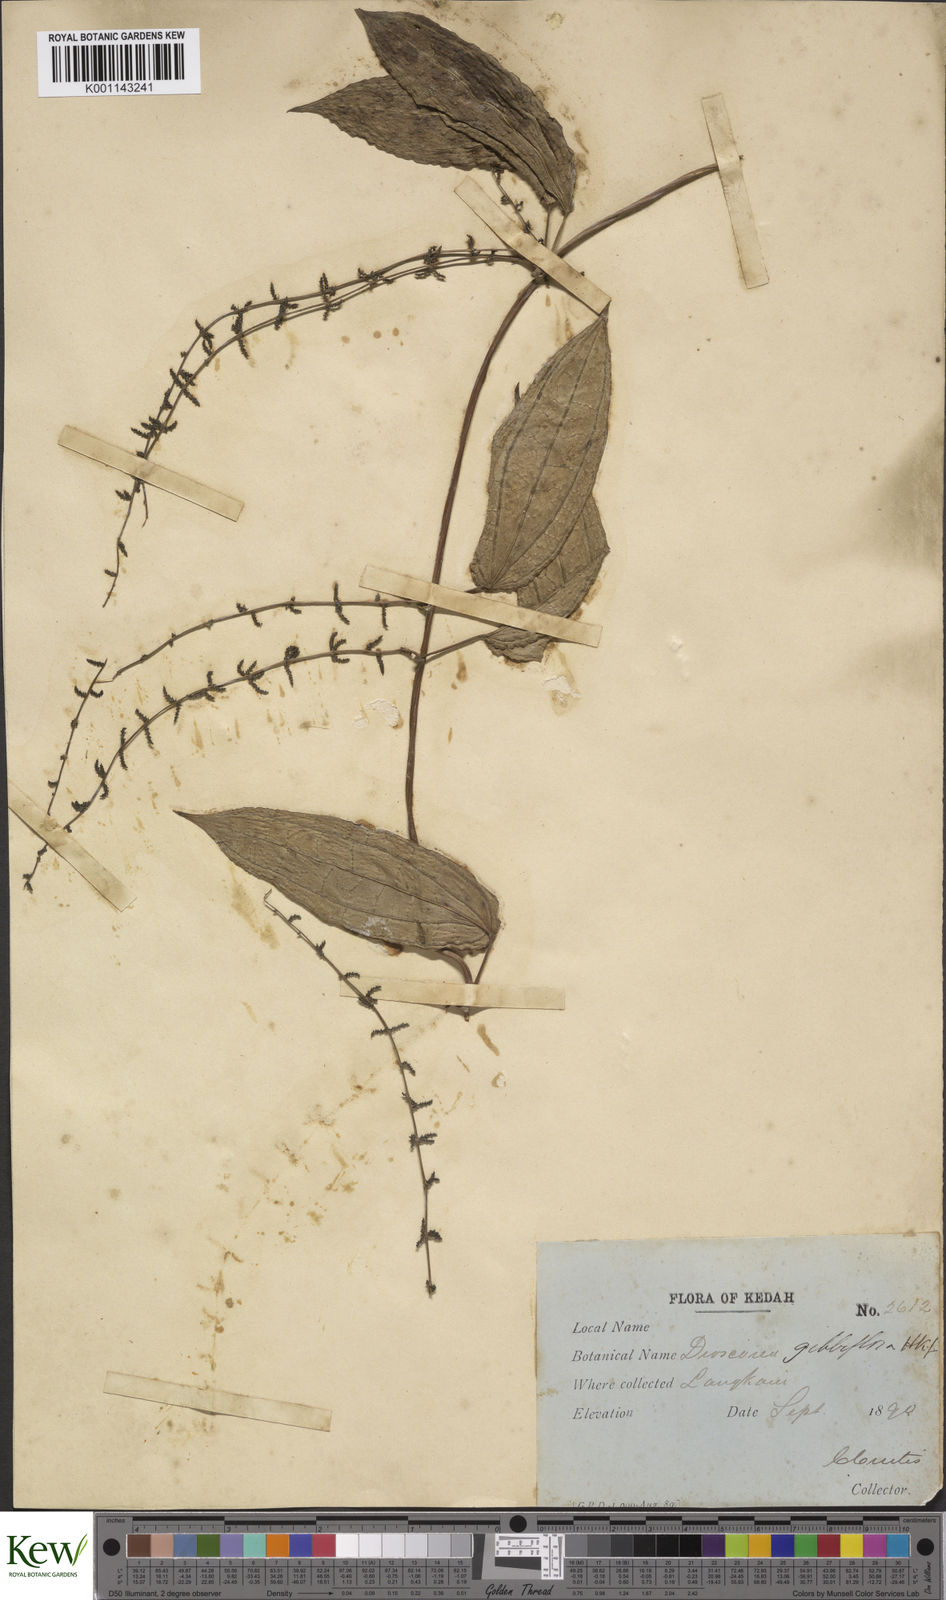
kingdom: Plantae
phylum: Tracheophyta
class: Liliopsida
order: Dioscoreales
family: Dioscoreaceae
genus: Dioscorea
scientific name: Dioscorea filiformis
